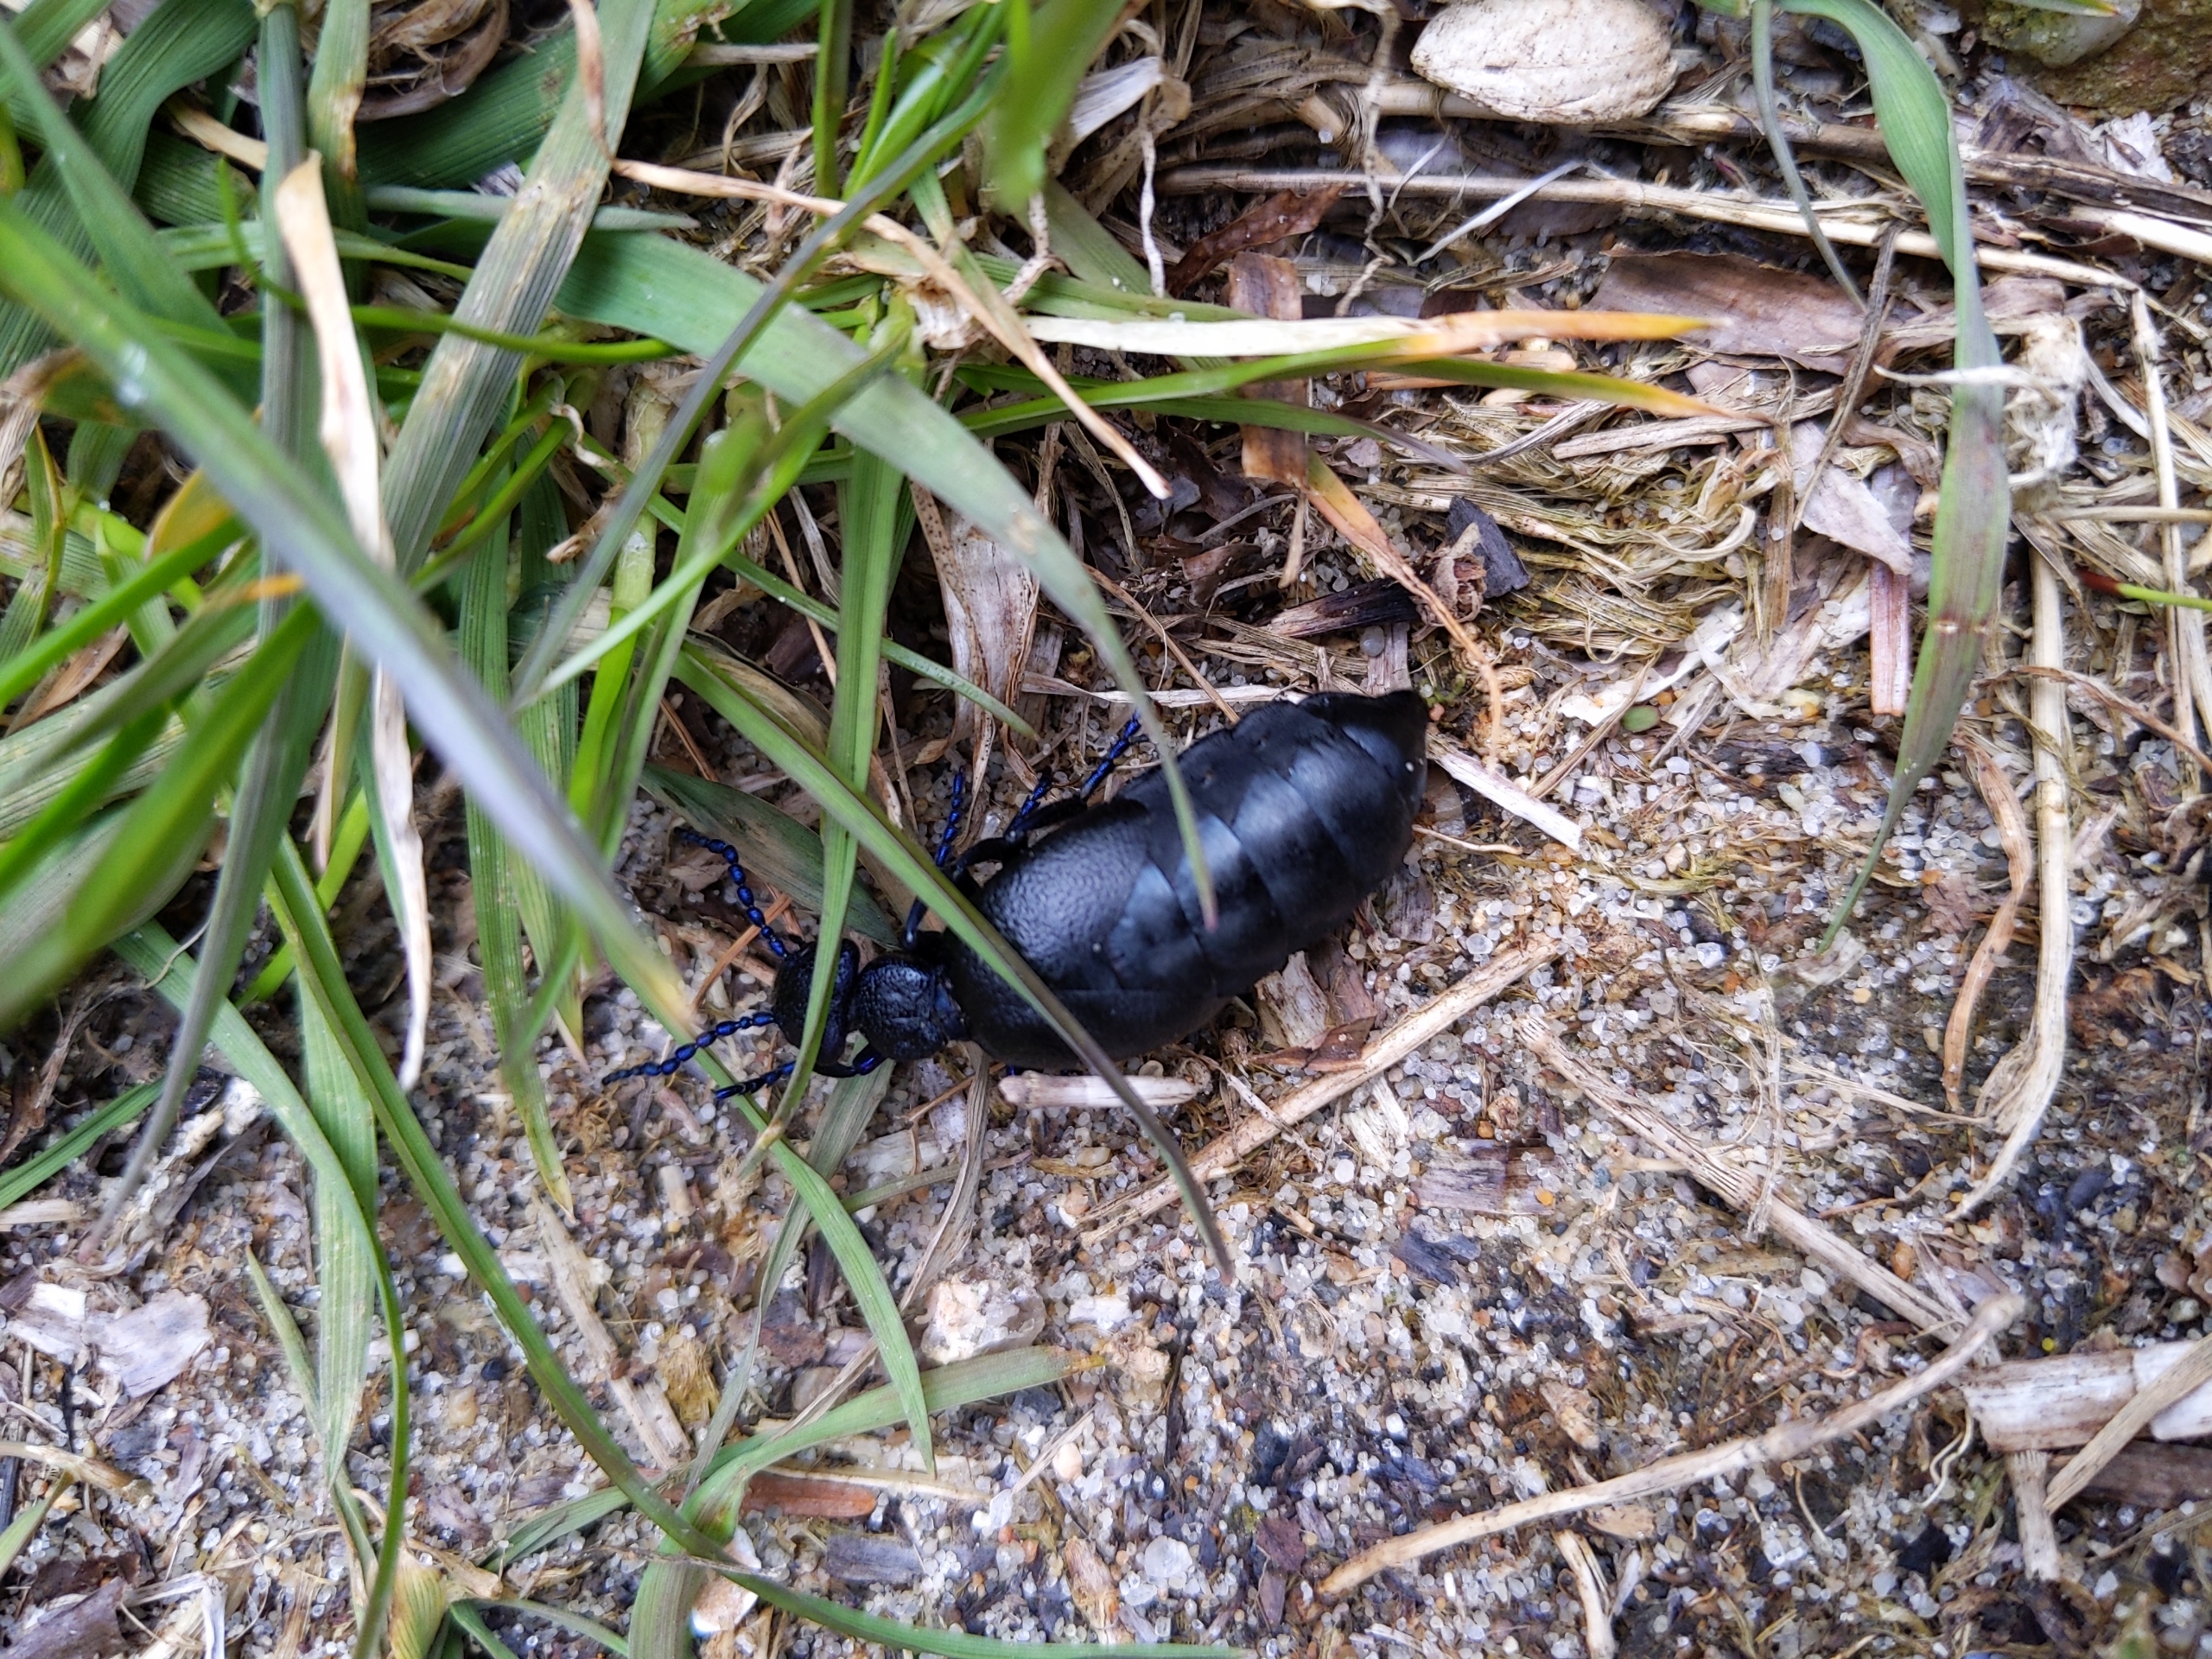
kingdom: Animalia
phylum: Arthropoda
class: Insecta
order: Coleoptera
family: Meloidae
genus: Meloe
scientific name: Meloe proscarabaeus
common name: Sort oliebille
